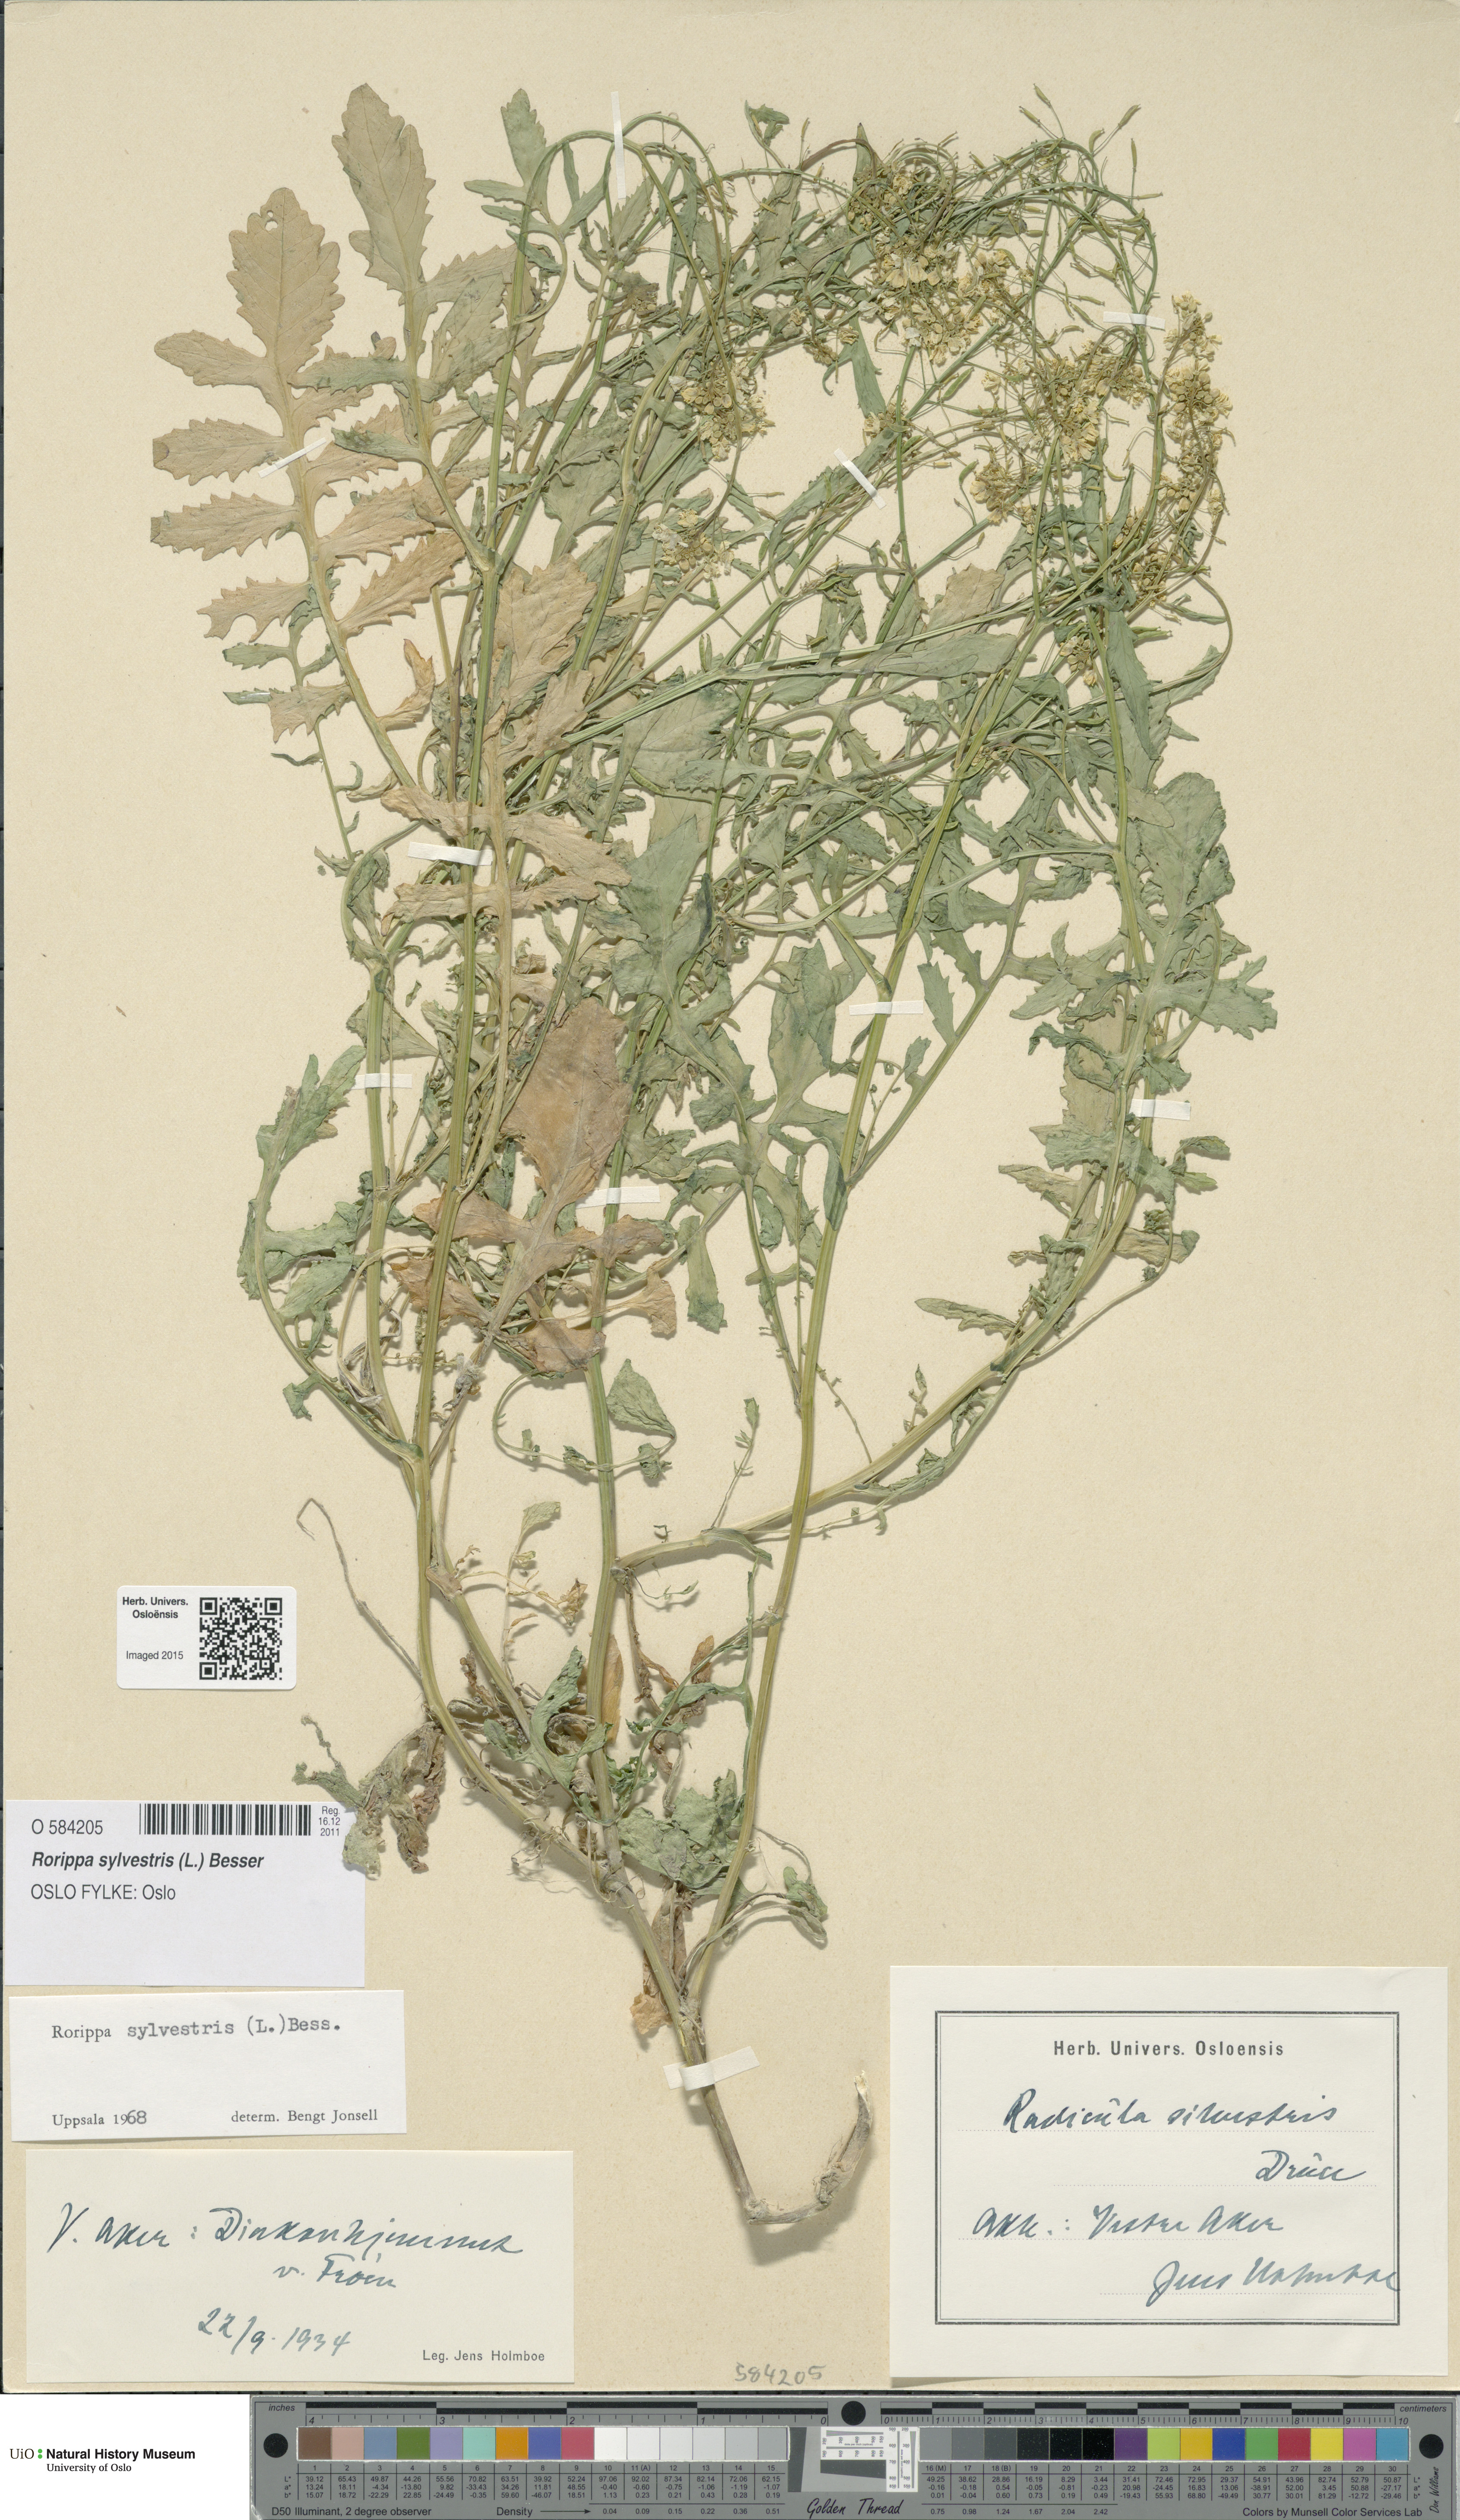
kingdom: Plantae
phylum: Tracheophyta
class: Magnoliopsida
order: Brassicales
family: Brassicaceae
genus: Rorippa
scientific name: Rorippa sylvestris
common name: Creeping yellowcress
